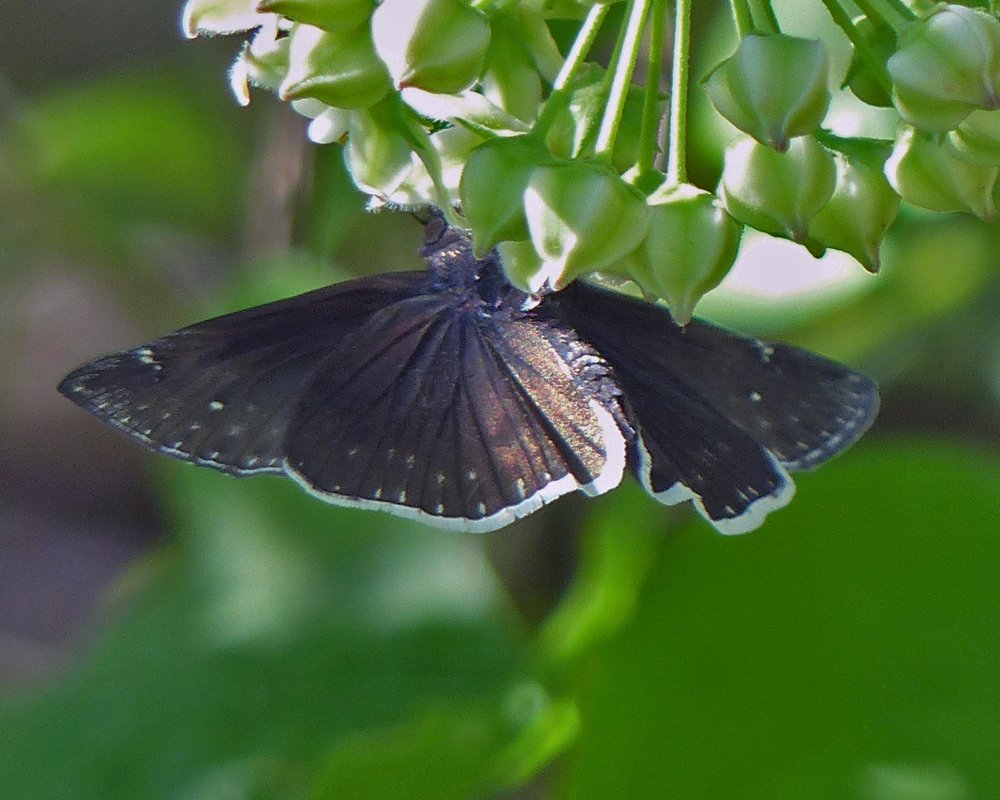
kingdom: Animalia
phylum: Arthropoda
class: Insecta
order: Lepidoptera
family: Hesperiidae
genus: Erynnis
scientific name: Erynnis funeralis
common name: Funereal Duskywing
